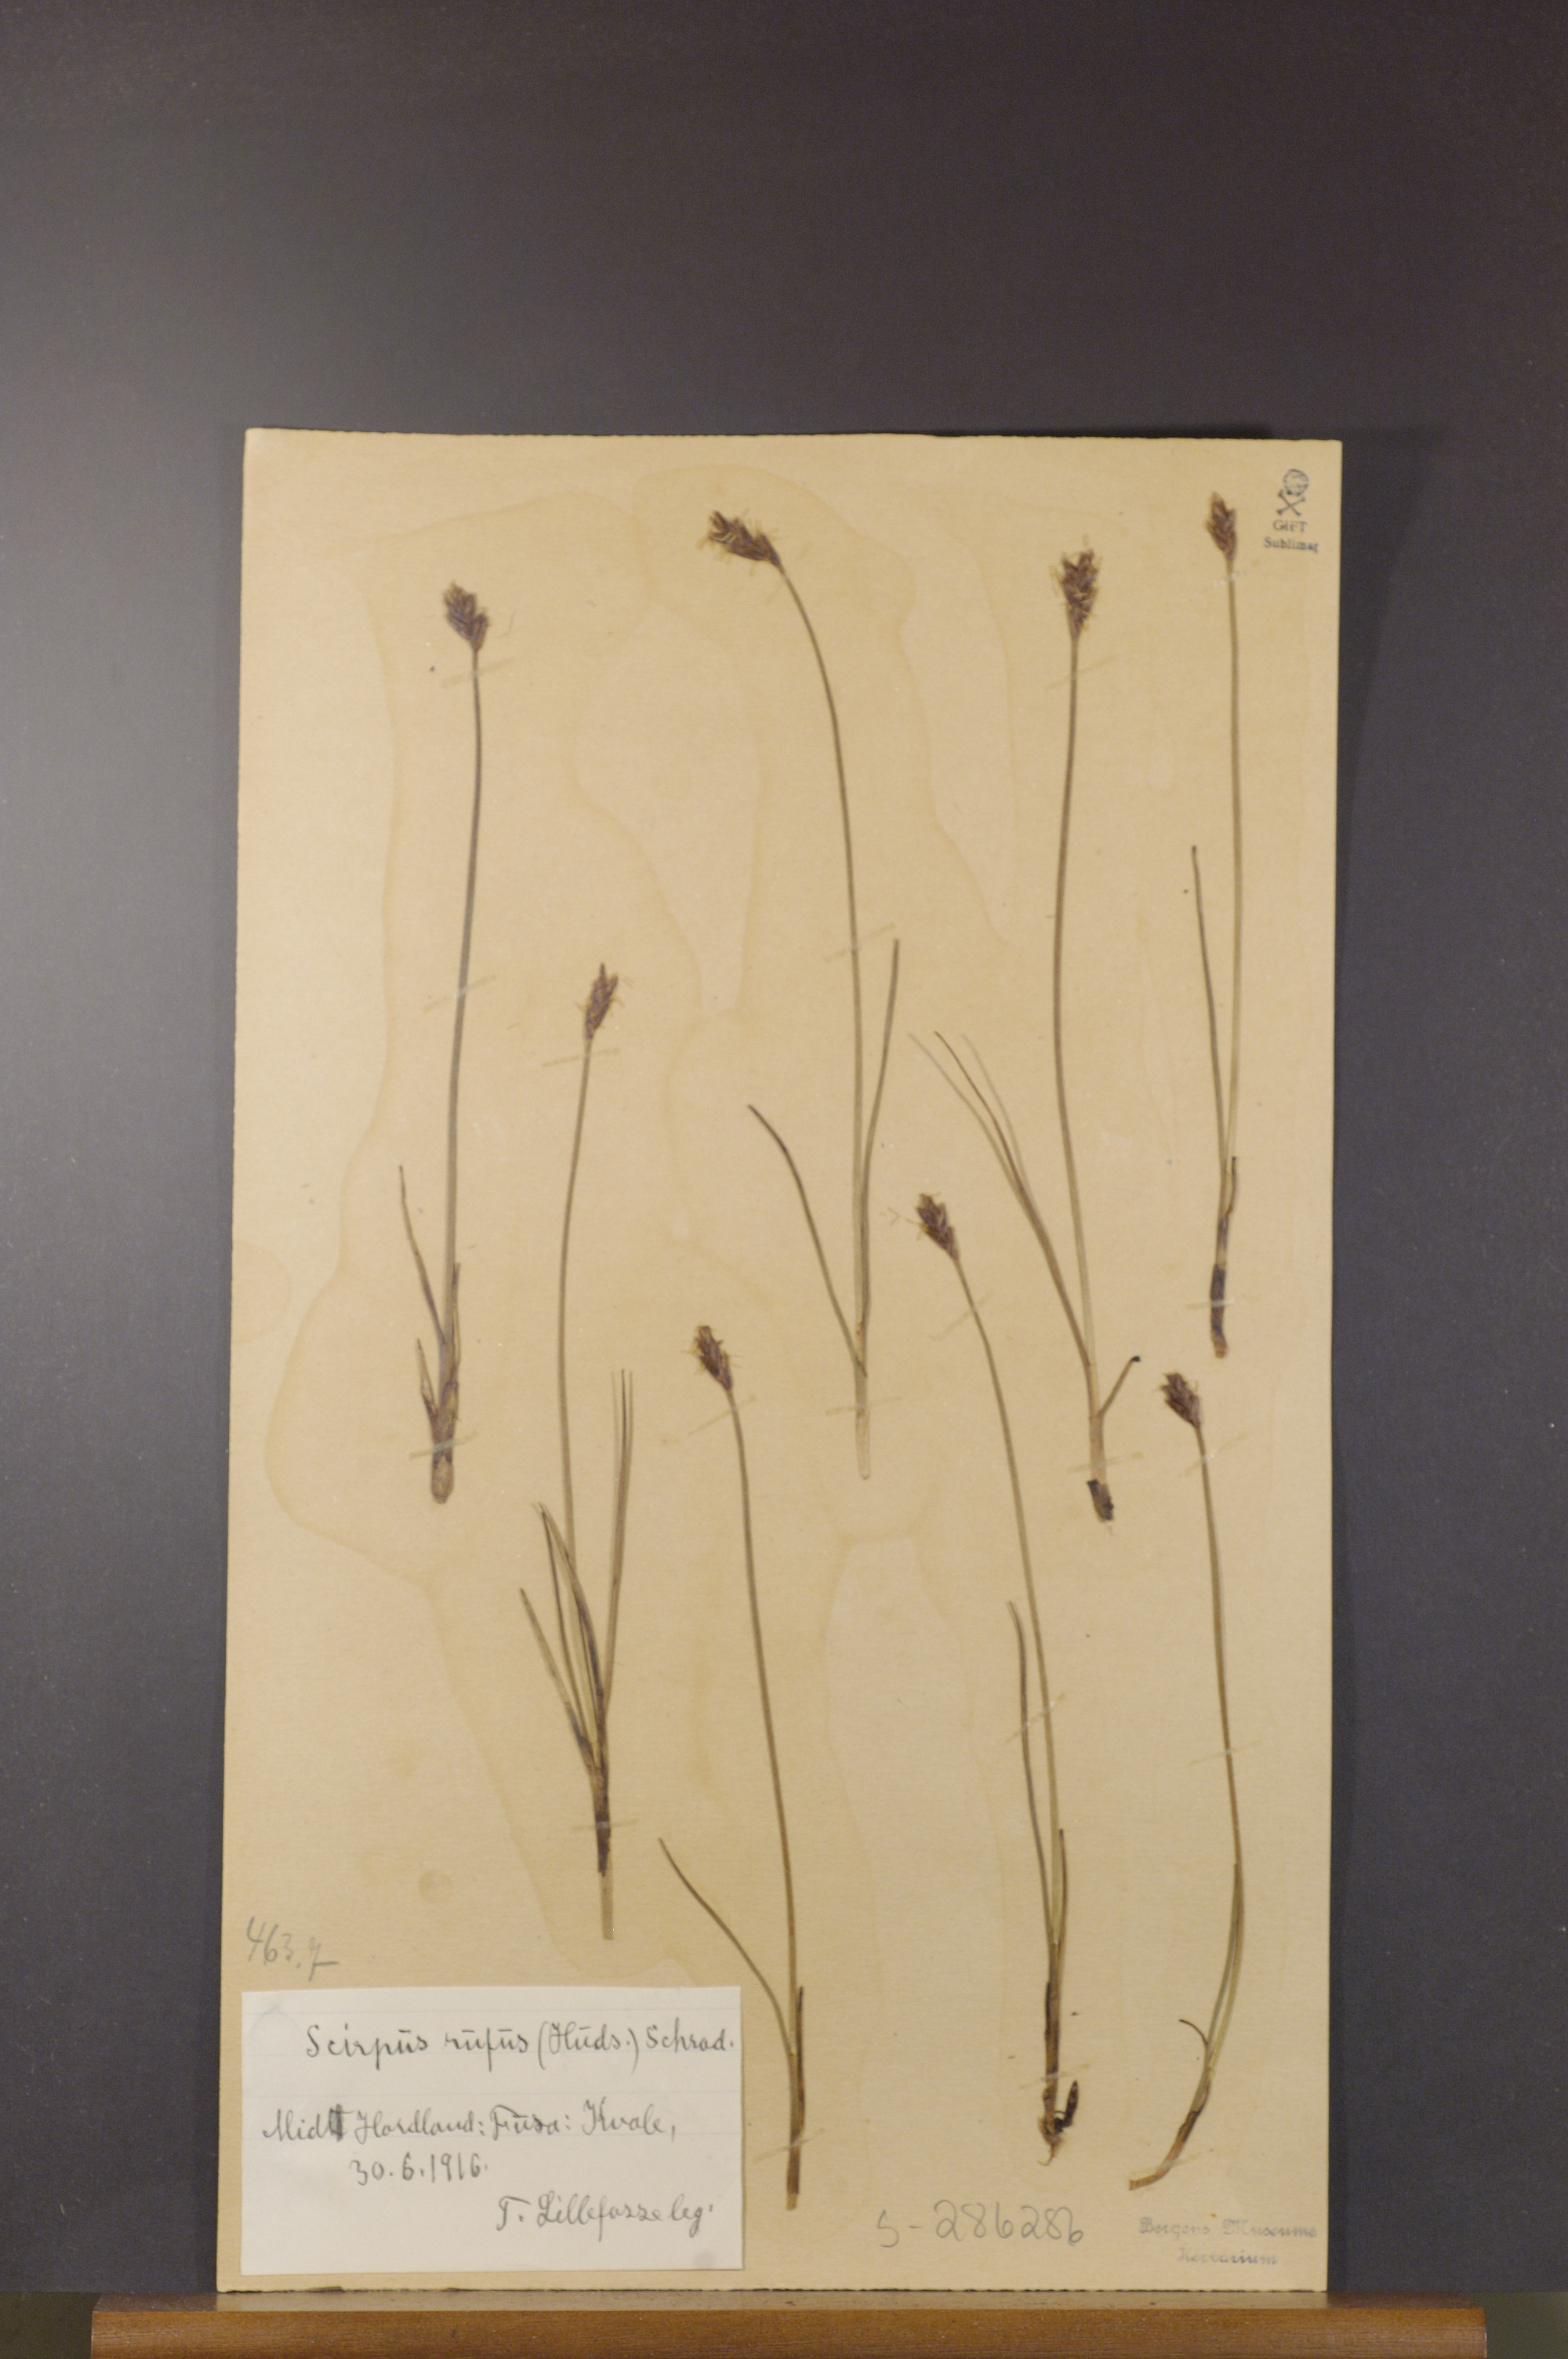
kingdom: Plantae
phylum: Tracheophyta
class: Liliopsida
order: Poales
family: Cyperaceae
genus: Blysmus
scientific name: Blysmus rufus
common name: Saltmarsh flat-sedge
